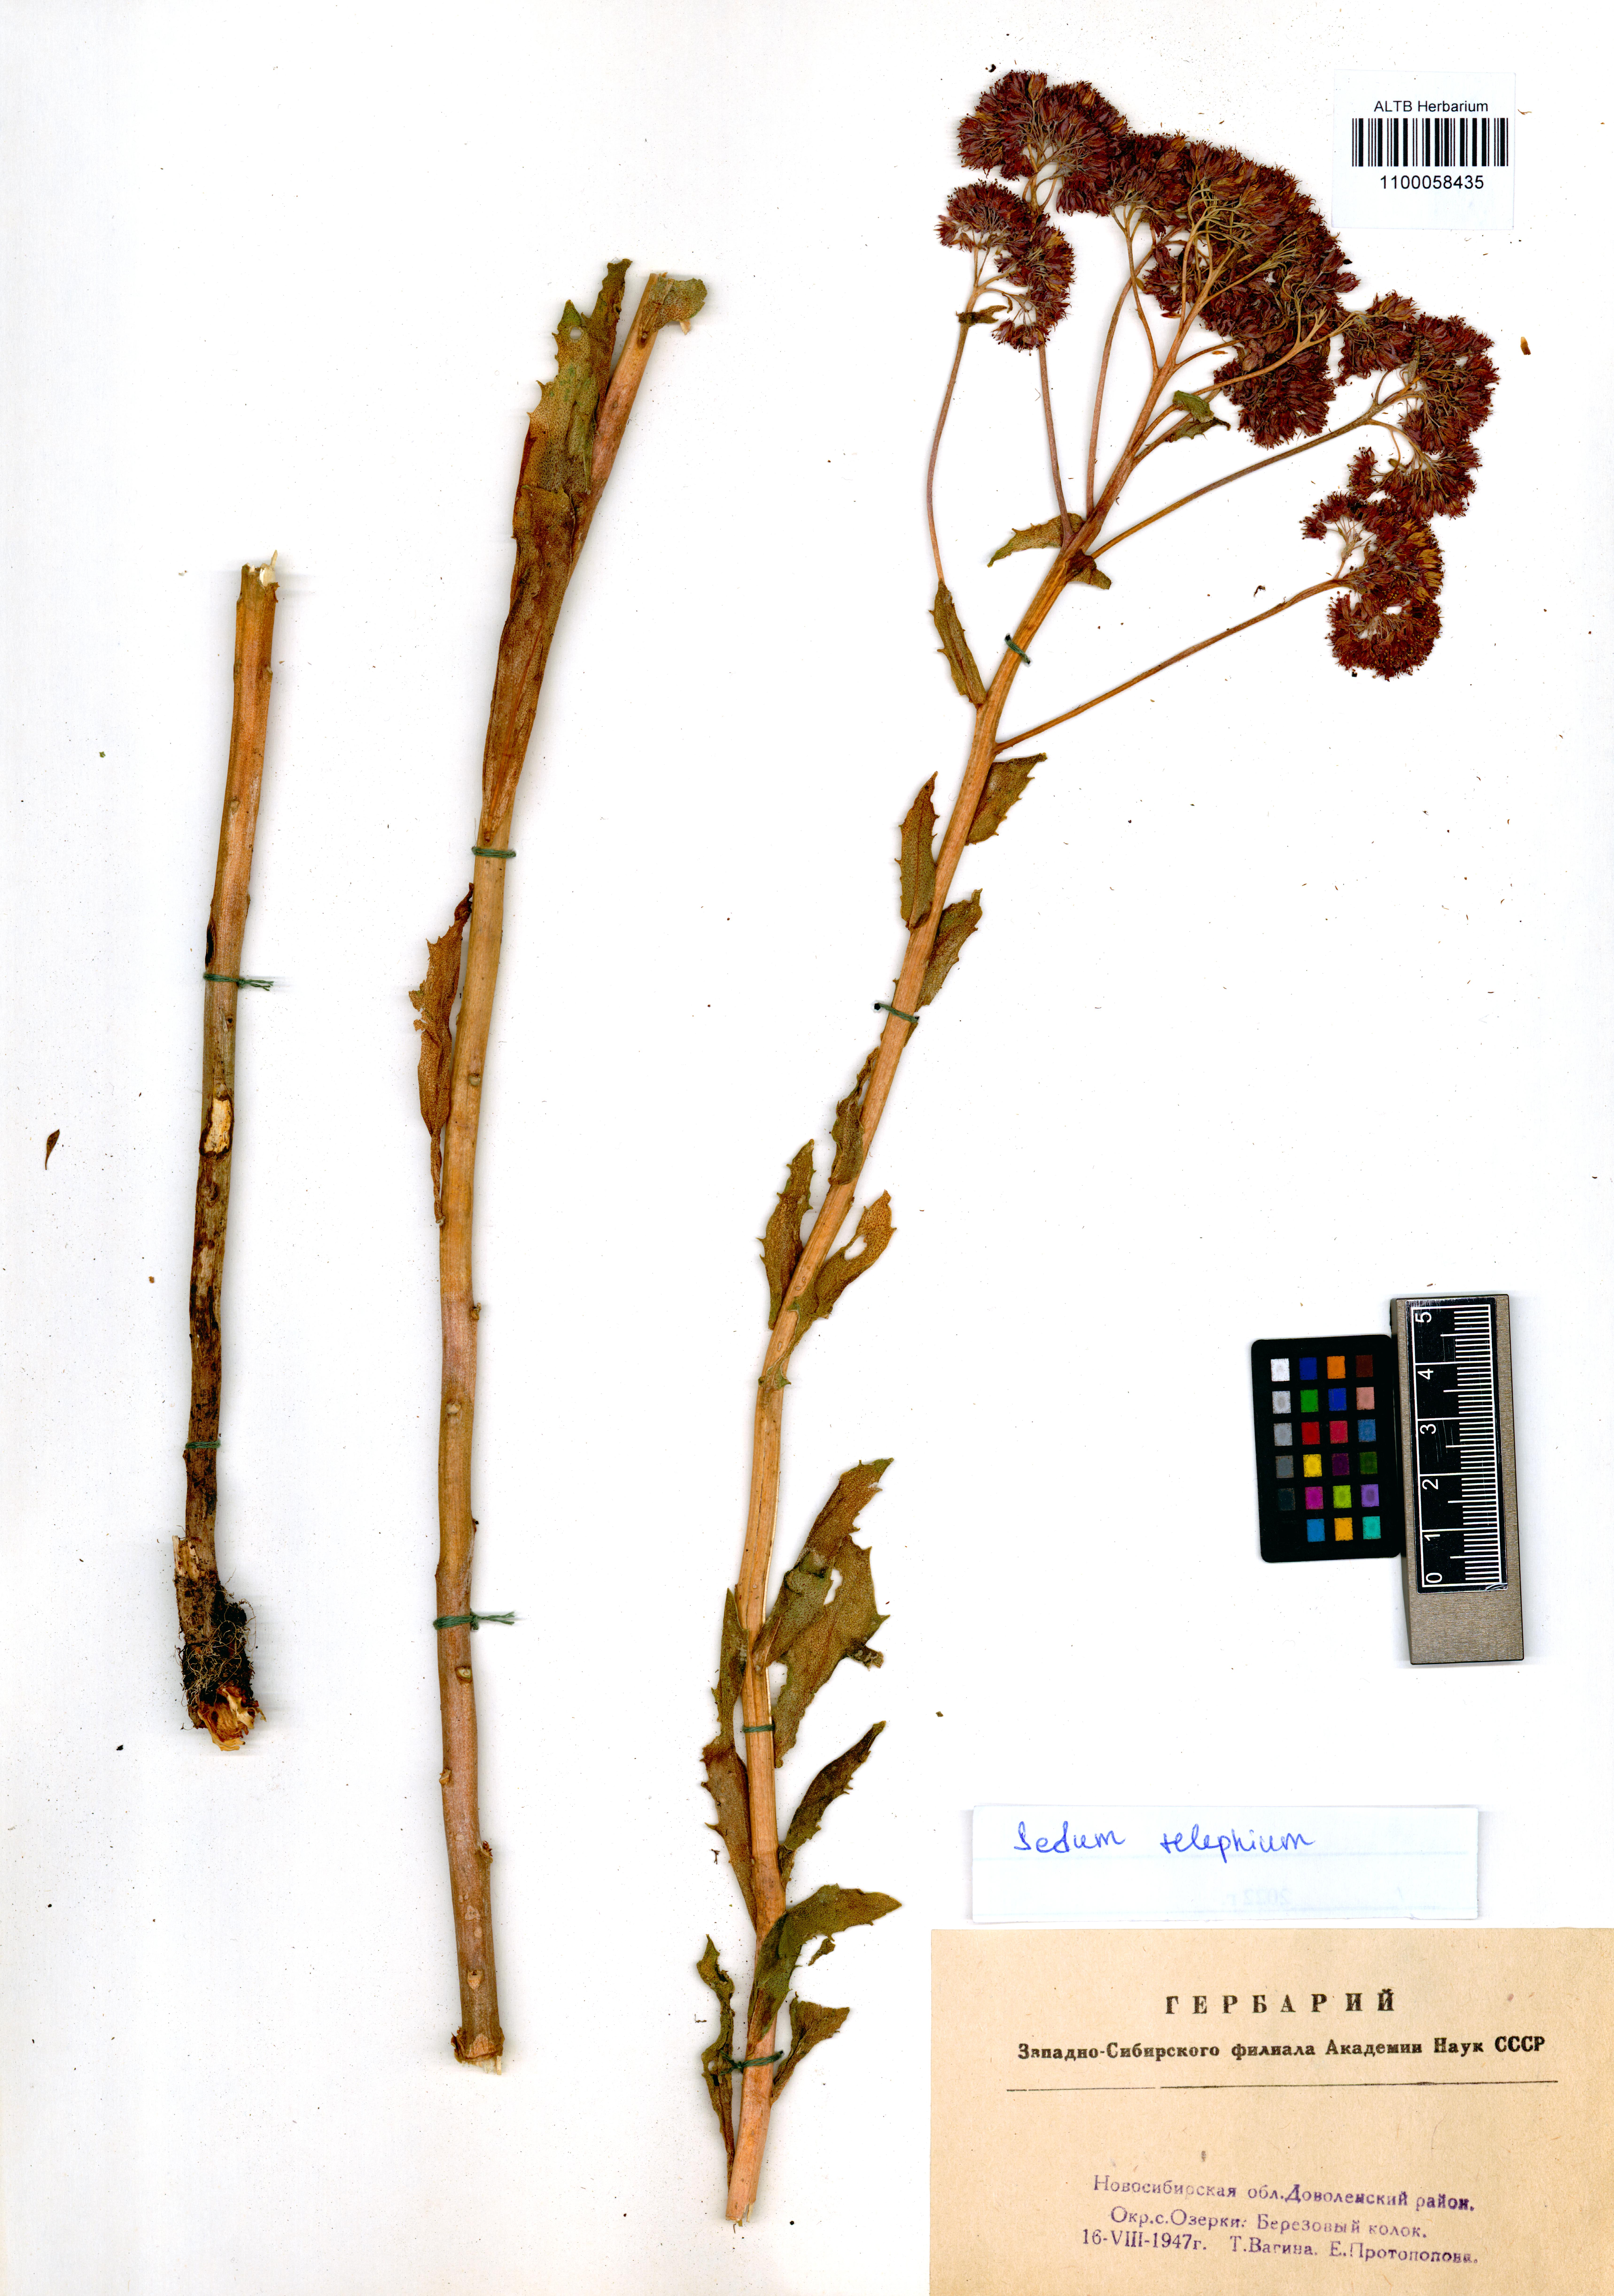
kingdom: Plantae
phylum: Tracheophyta
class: Magnoliopsida
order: Saxifragales
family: Crassulaceae
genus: Hylotelephium
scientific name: Hylotelephium telephium
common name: Live-forever
